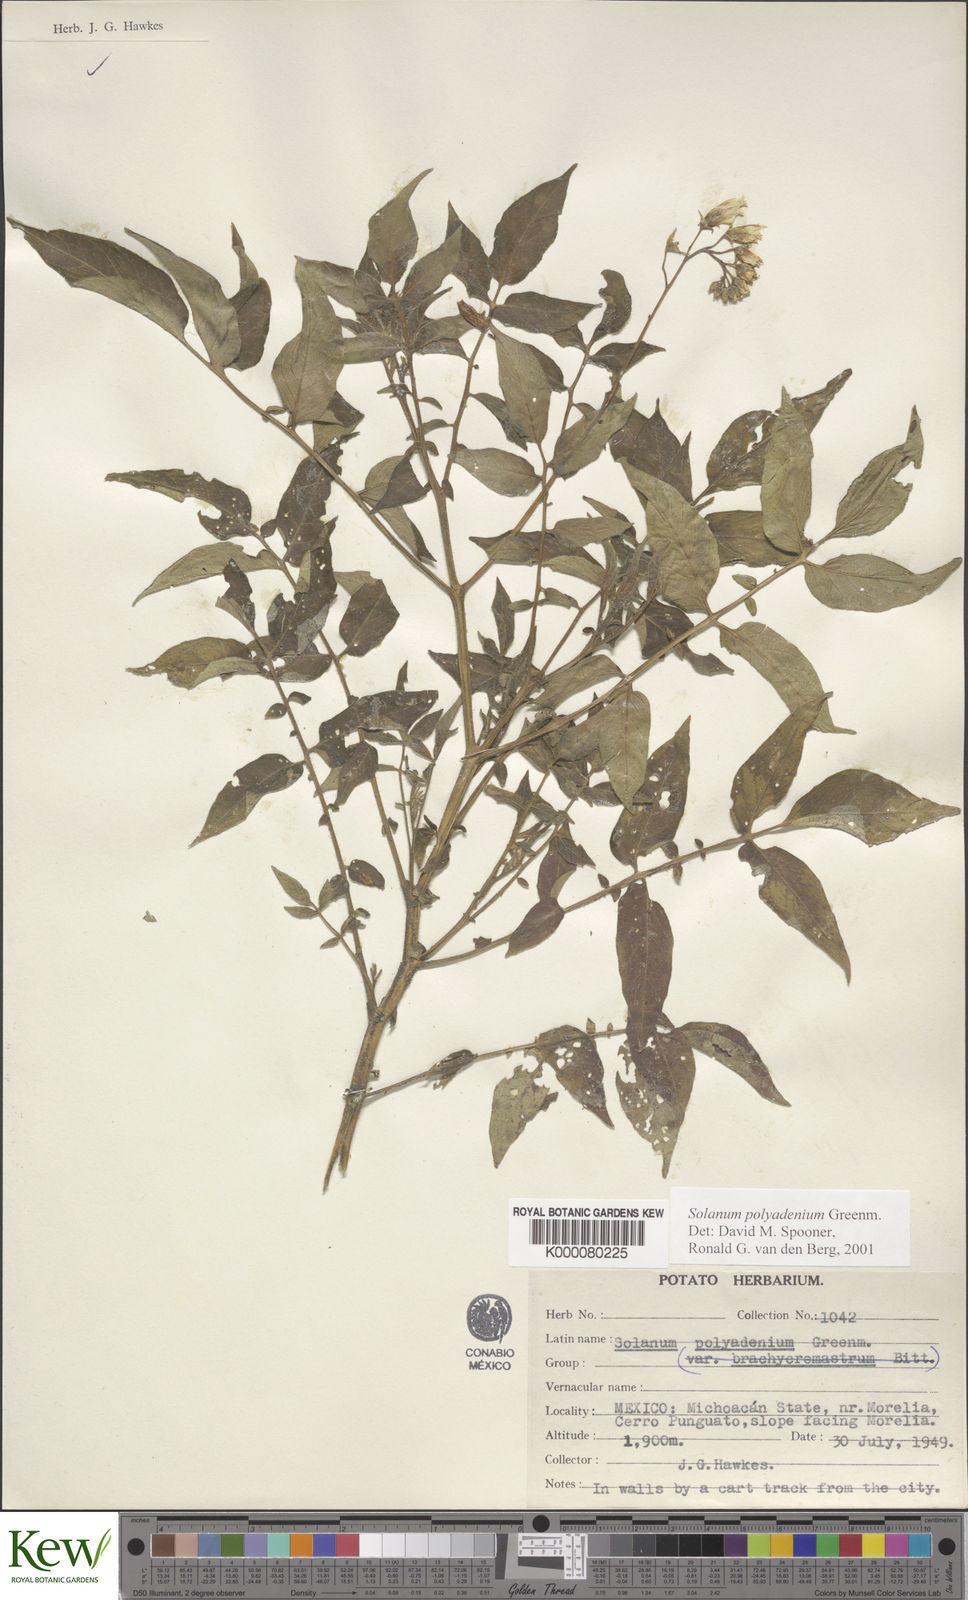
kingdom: Plantae
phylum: Tracheophyta
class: Magnoliopsida
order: Solanales
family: Solanaceae
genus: Solanum
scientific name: Solanum polyadenium
